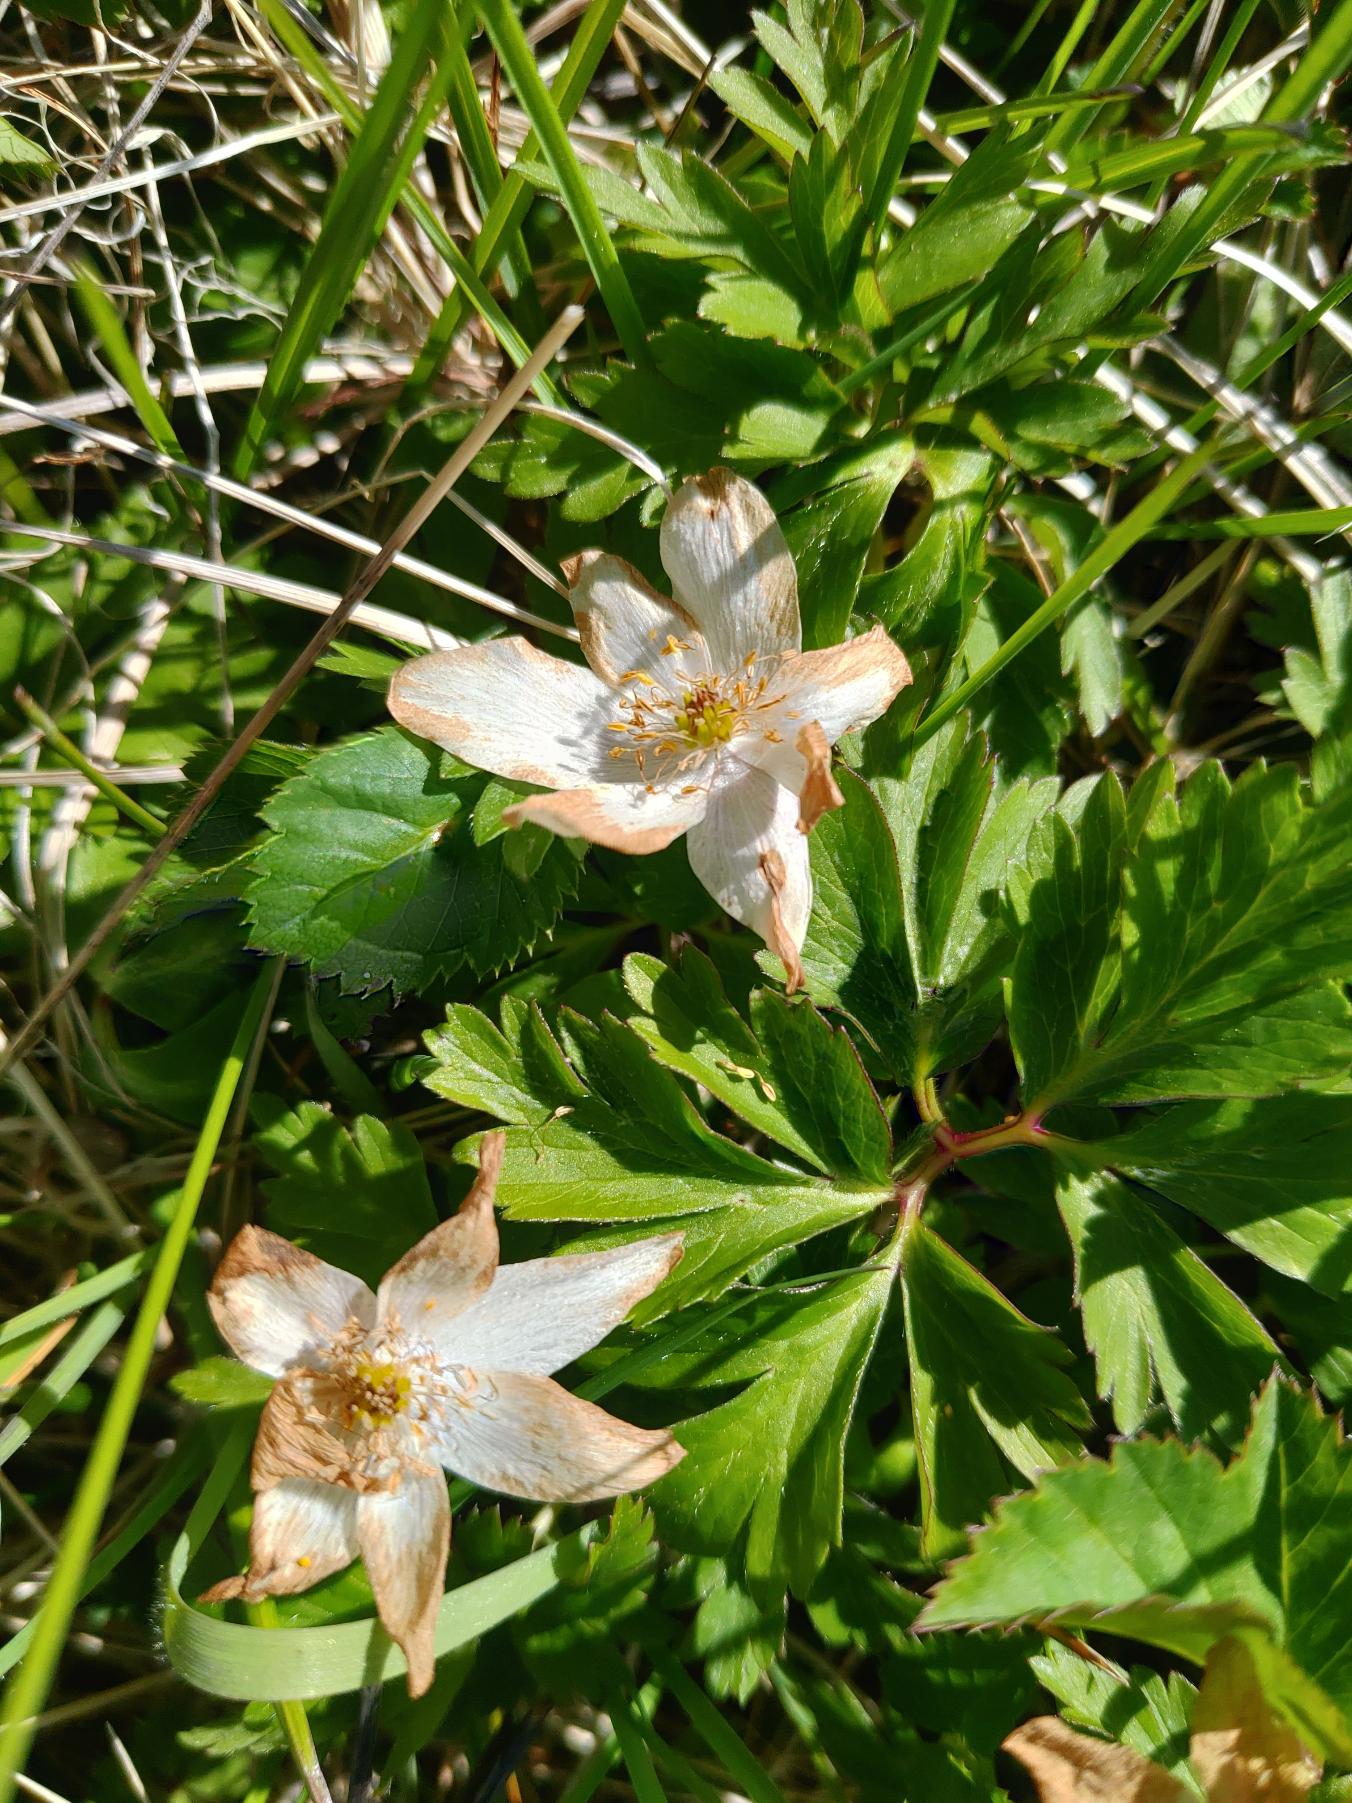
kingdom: Plantae
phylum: Tracheophyta
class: Magnoliopsida
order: Ranunculales
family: Ranunculaceae
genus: Anemone
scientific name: Anemone nemorosa
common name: Hvid anemone
